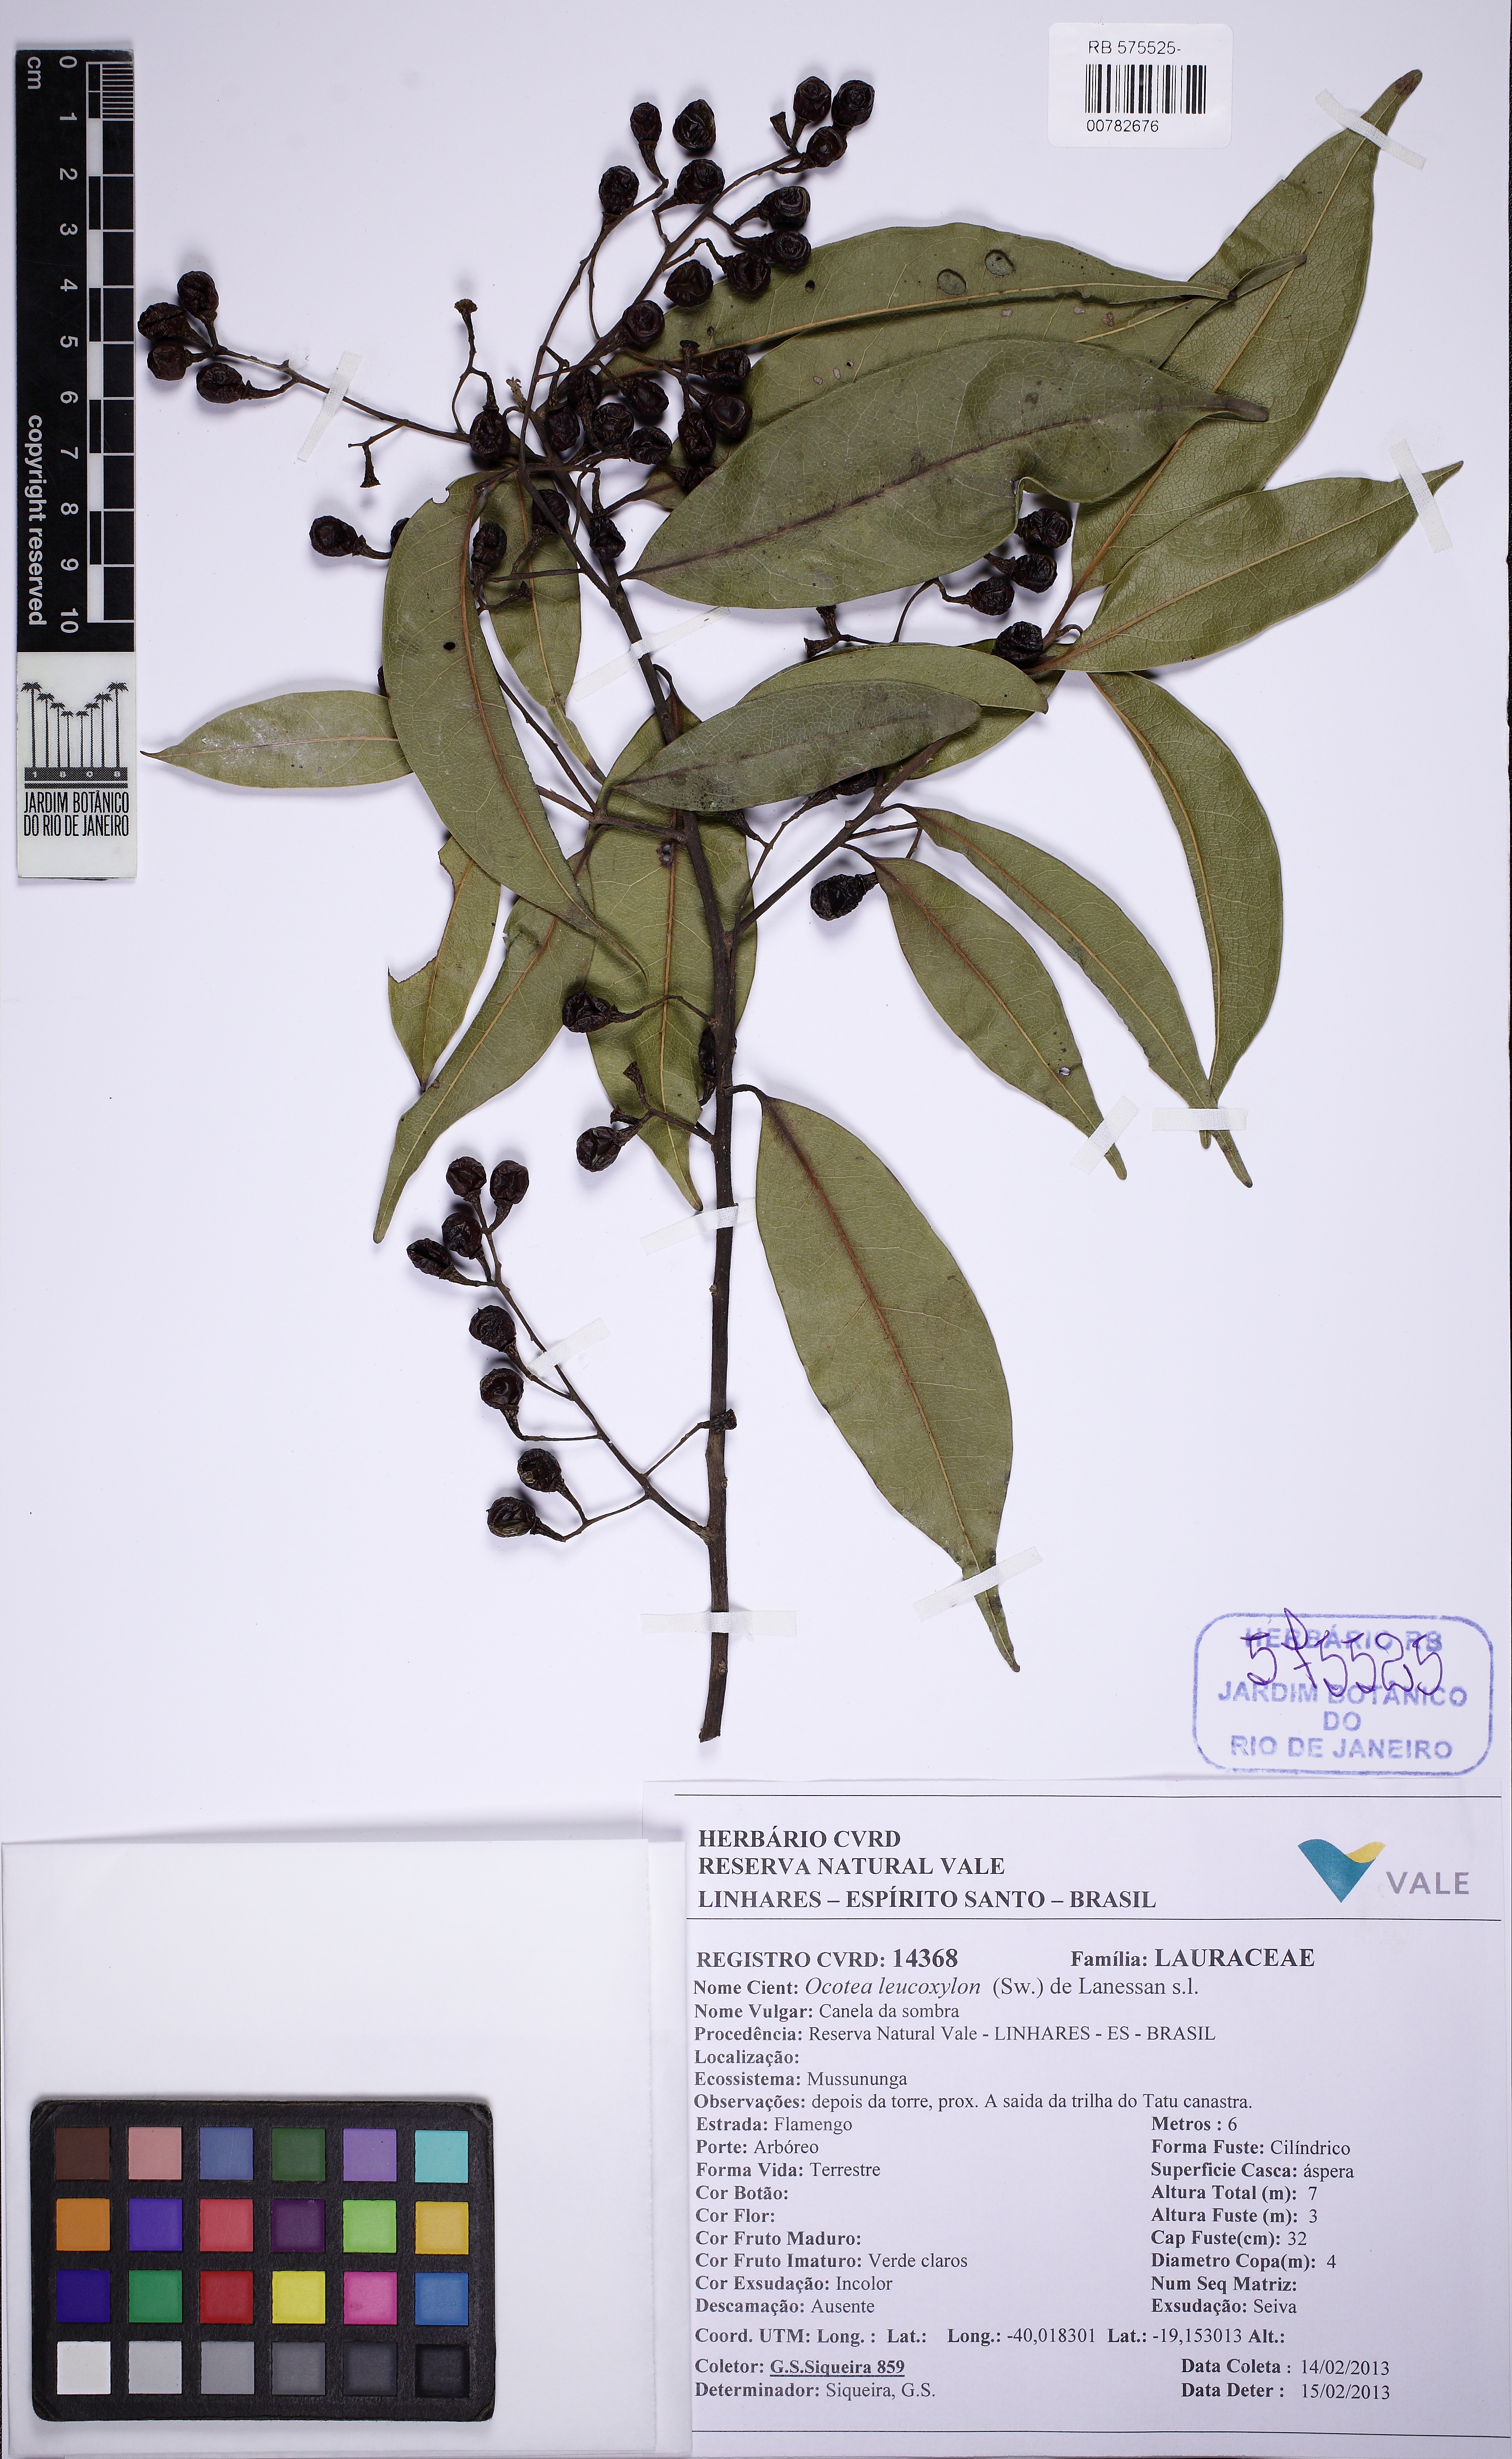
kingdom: Plantae
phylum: Tracheophyta
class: Magnoliopsida
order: Laurales
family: Lauraceae
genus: Ocotea
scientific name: Ocotea leucoxylon
